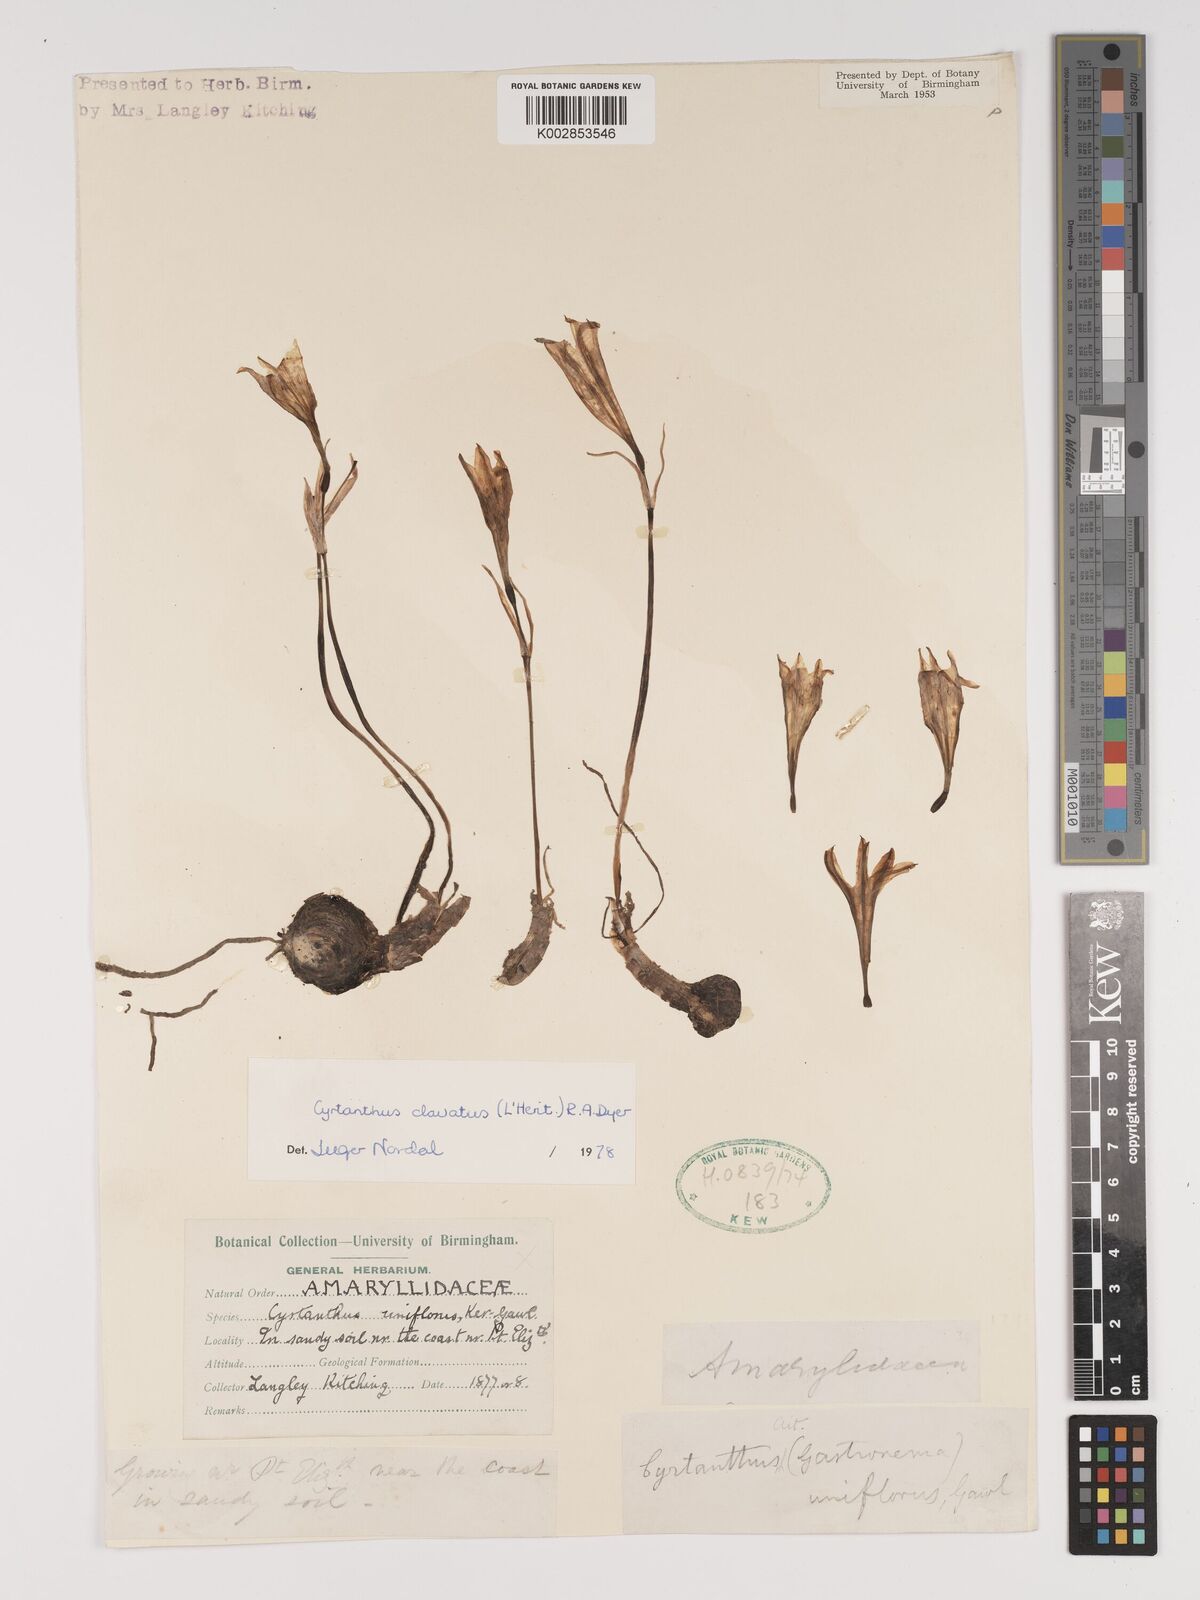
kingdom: Plantae
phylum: Tracheophyta
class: Liliopsida
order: Asparagales
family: Amaryllidaceae
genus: Cyrtanthus
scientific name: Cyrtanthus clavatus
